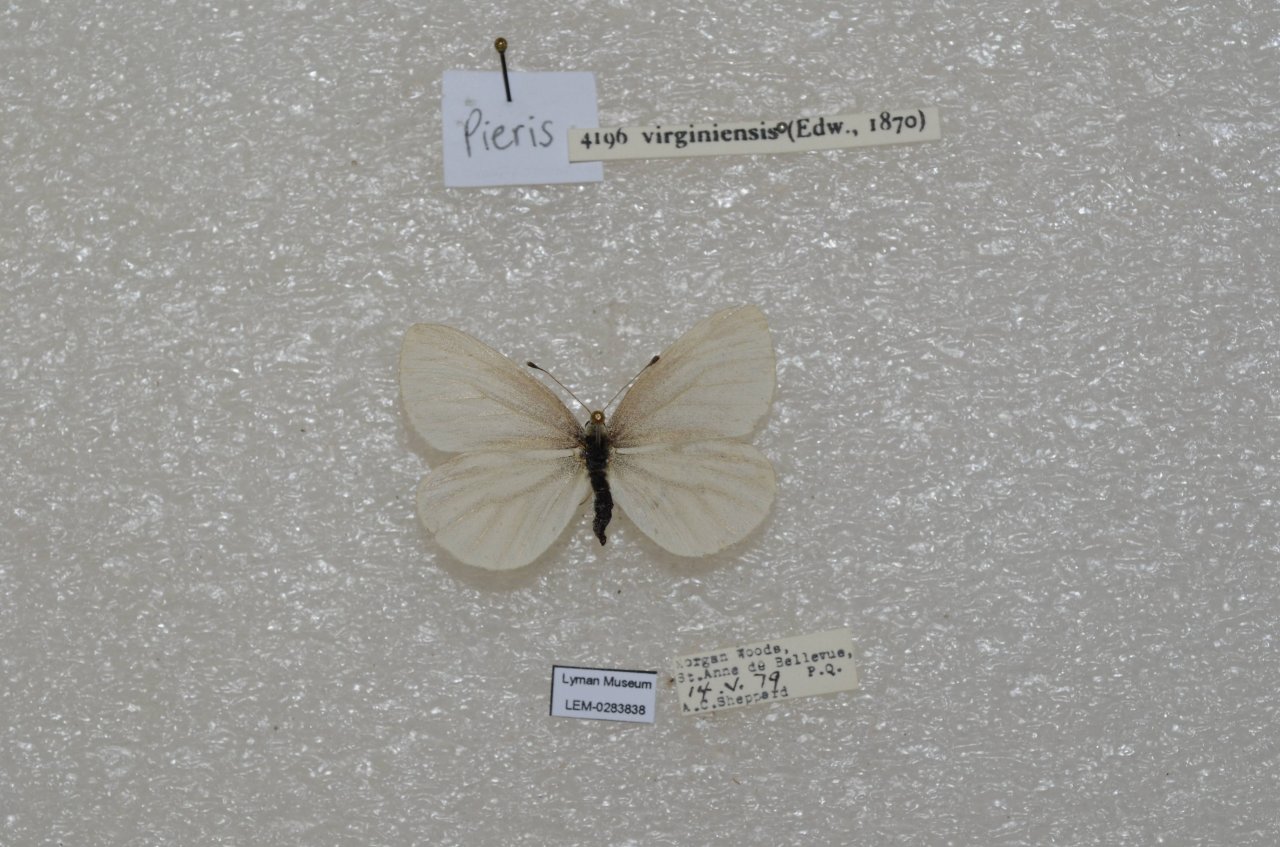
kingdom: Animalia
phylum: Arthropoda
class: Insecta
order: Lepidoptera
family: Pieridae
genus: Pieris
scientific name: Pieris virginiensis
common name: West Virginia White
